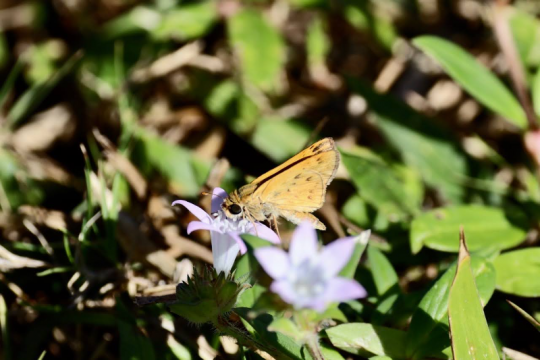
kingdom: Animalia
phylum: Arthropoda
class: Insecta
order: Lepidoptera
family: Hesperiidae
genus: Hylephila
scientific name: Hylephila phyleus
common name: Fiery Skipper
